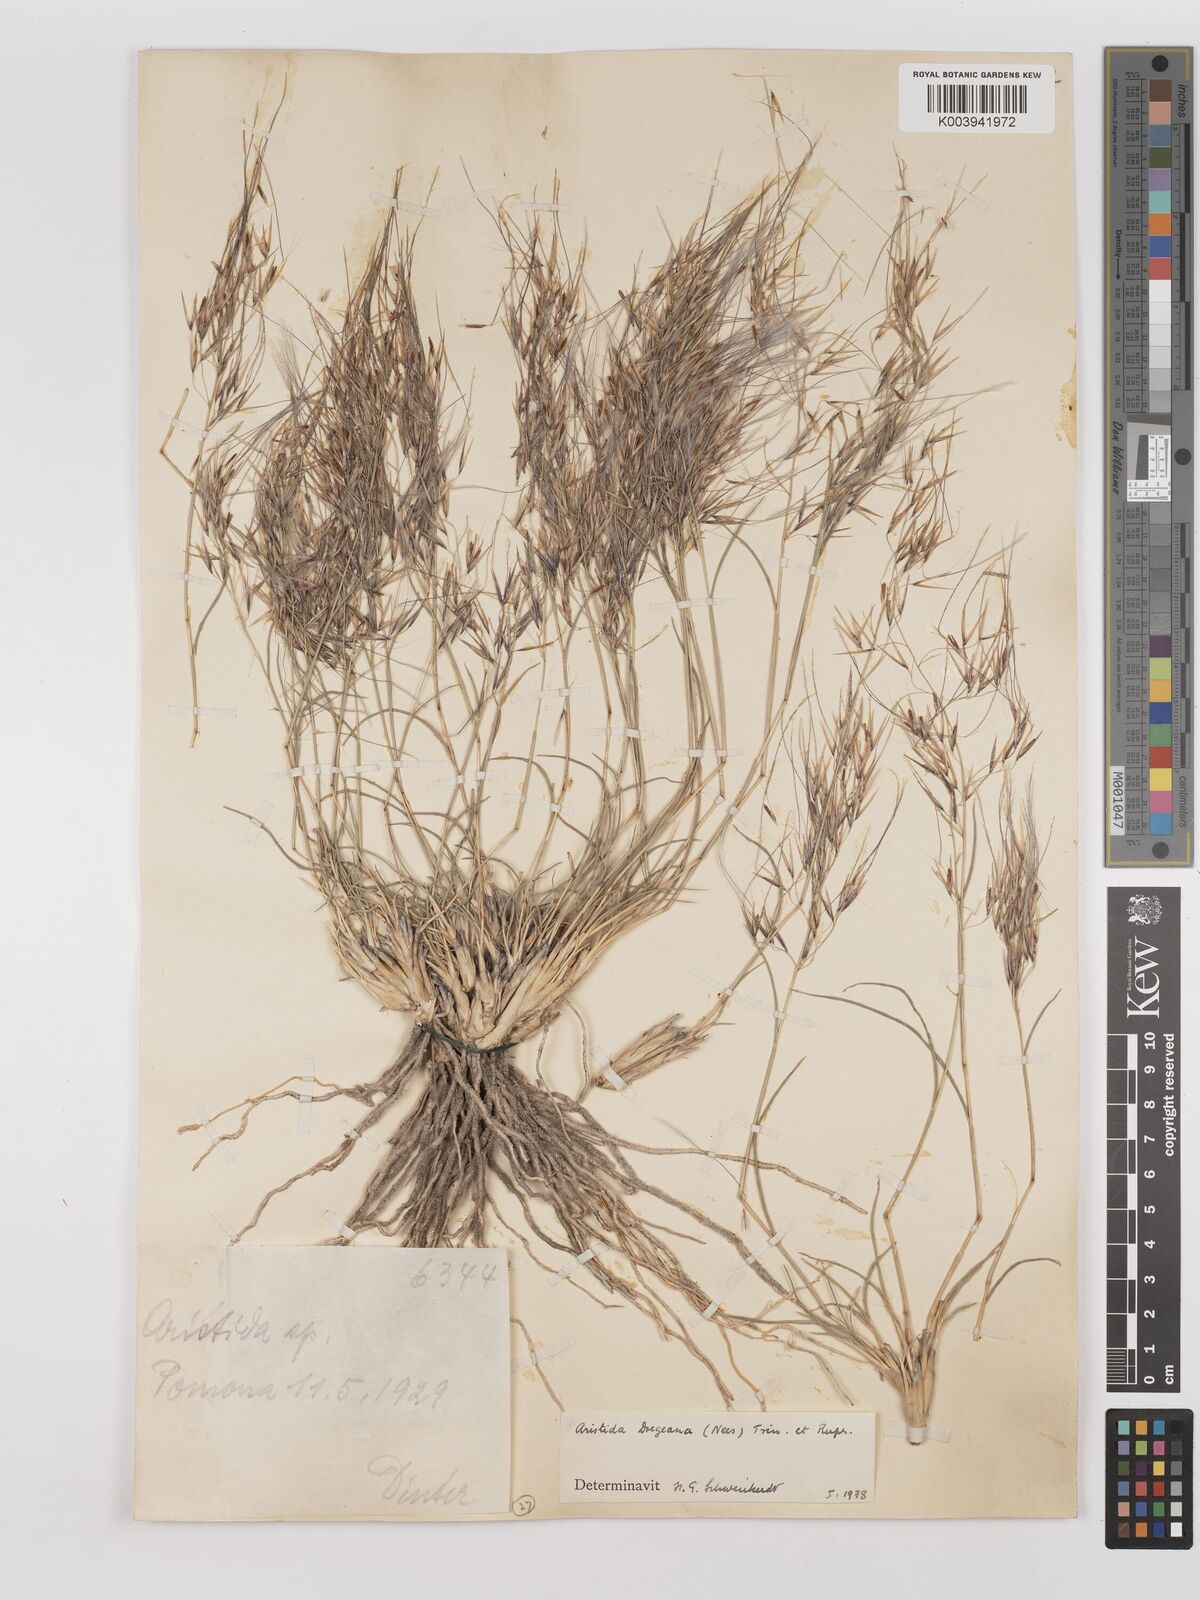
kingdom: Plantae
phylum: Tracheophyta
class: Liliopsida
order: Poales
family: Poaceae
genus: Stipagrostis
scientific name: Stipagrostis dregeana
